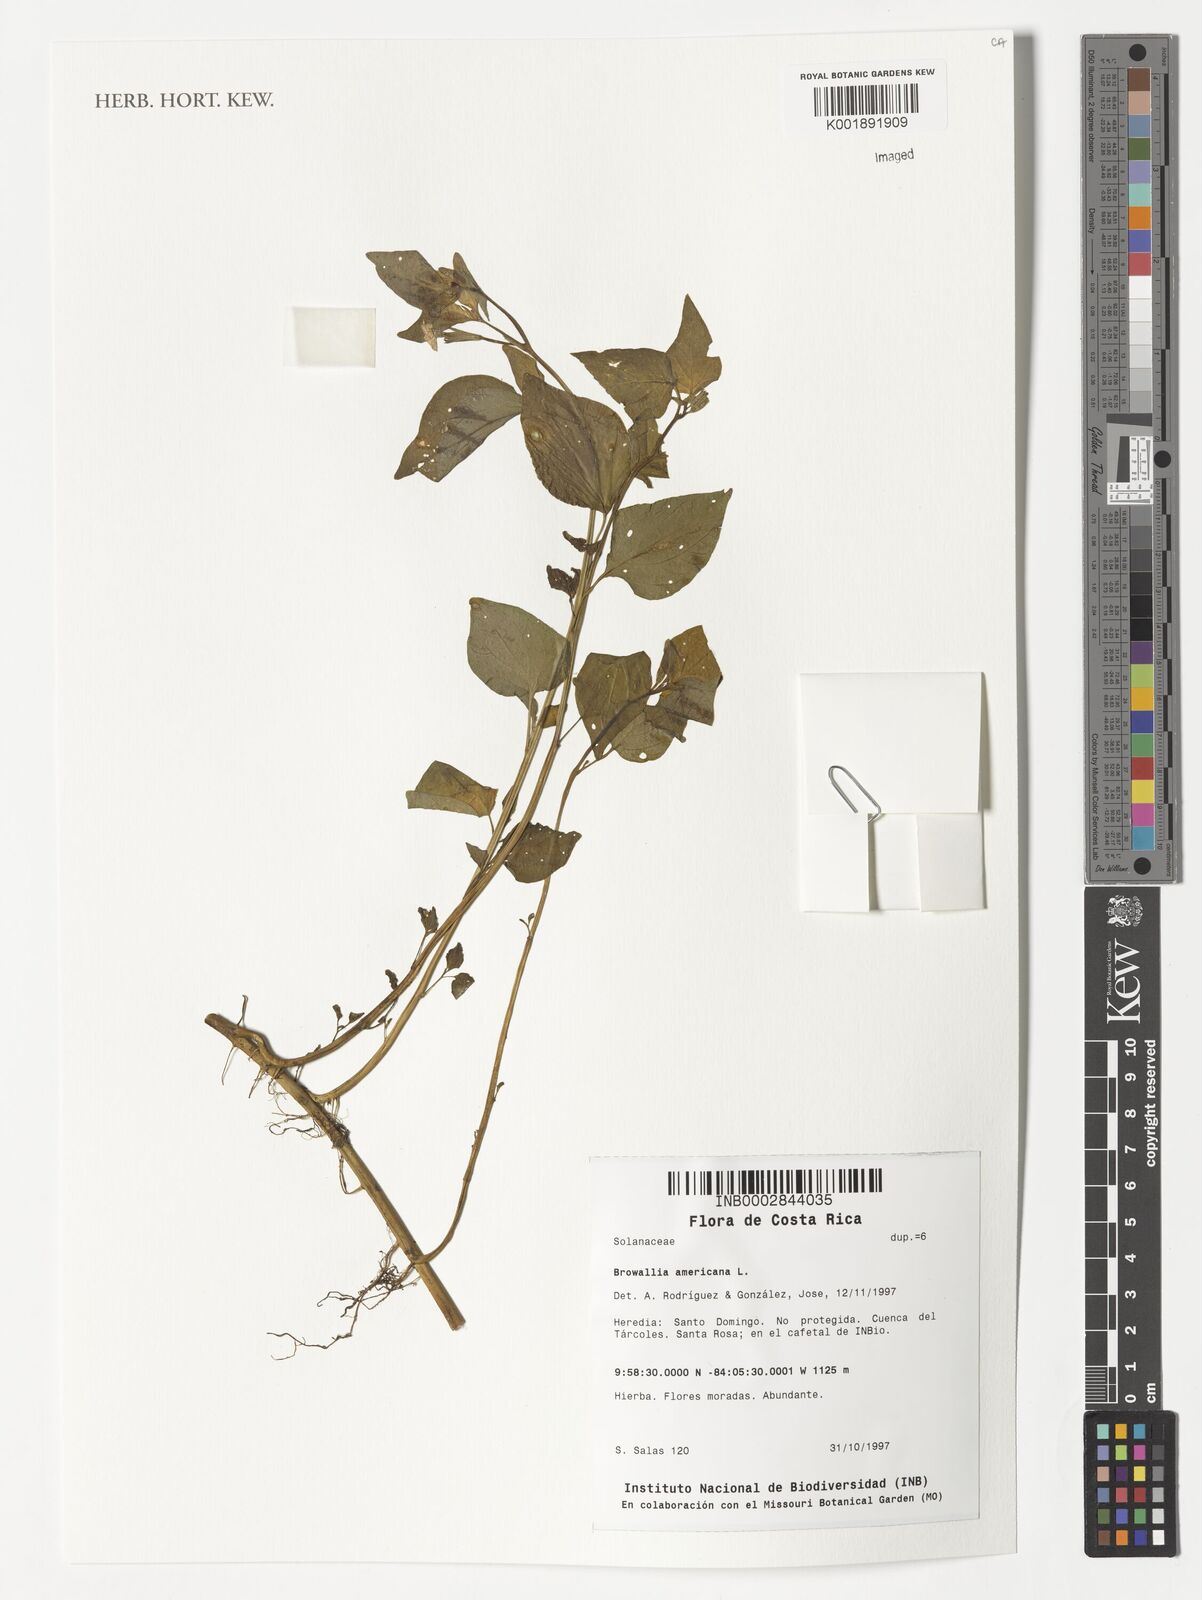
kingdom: Plantae
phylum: Tracheophyta
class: Magnoliopsida
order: Solanales
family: Solanaceae
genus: Browallia
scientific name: Browallia americana
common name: Jamaican forget-me-not
